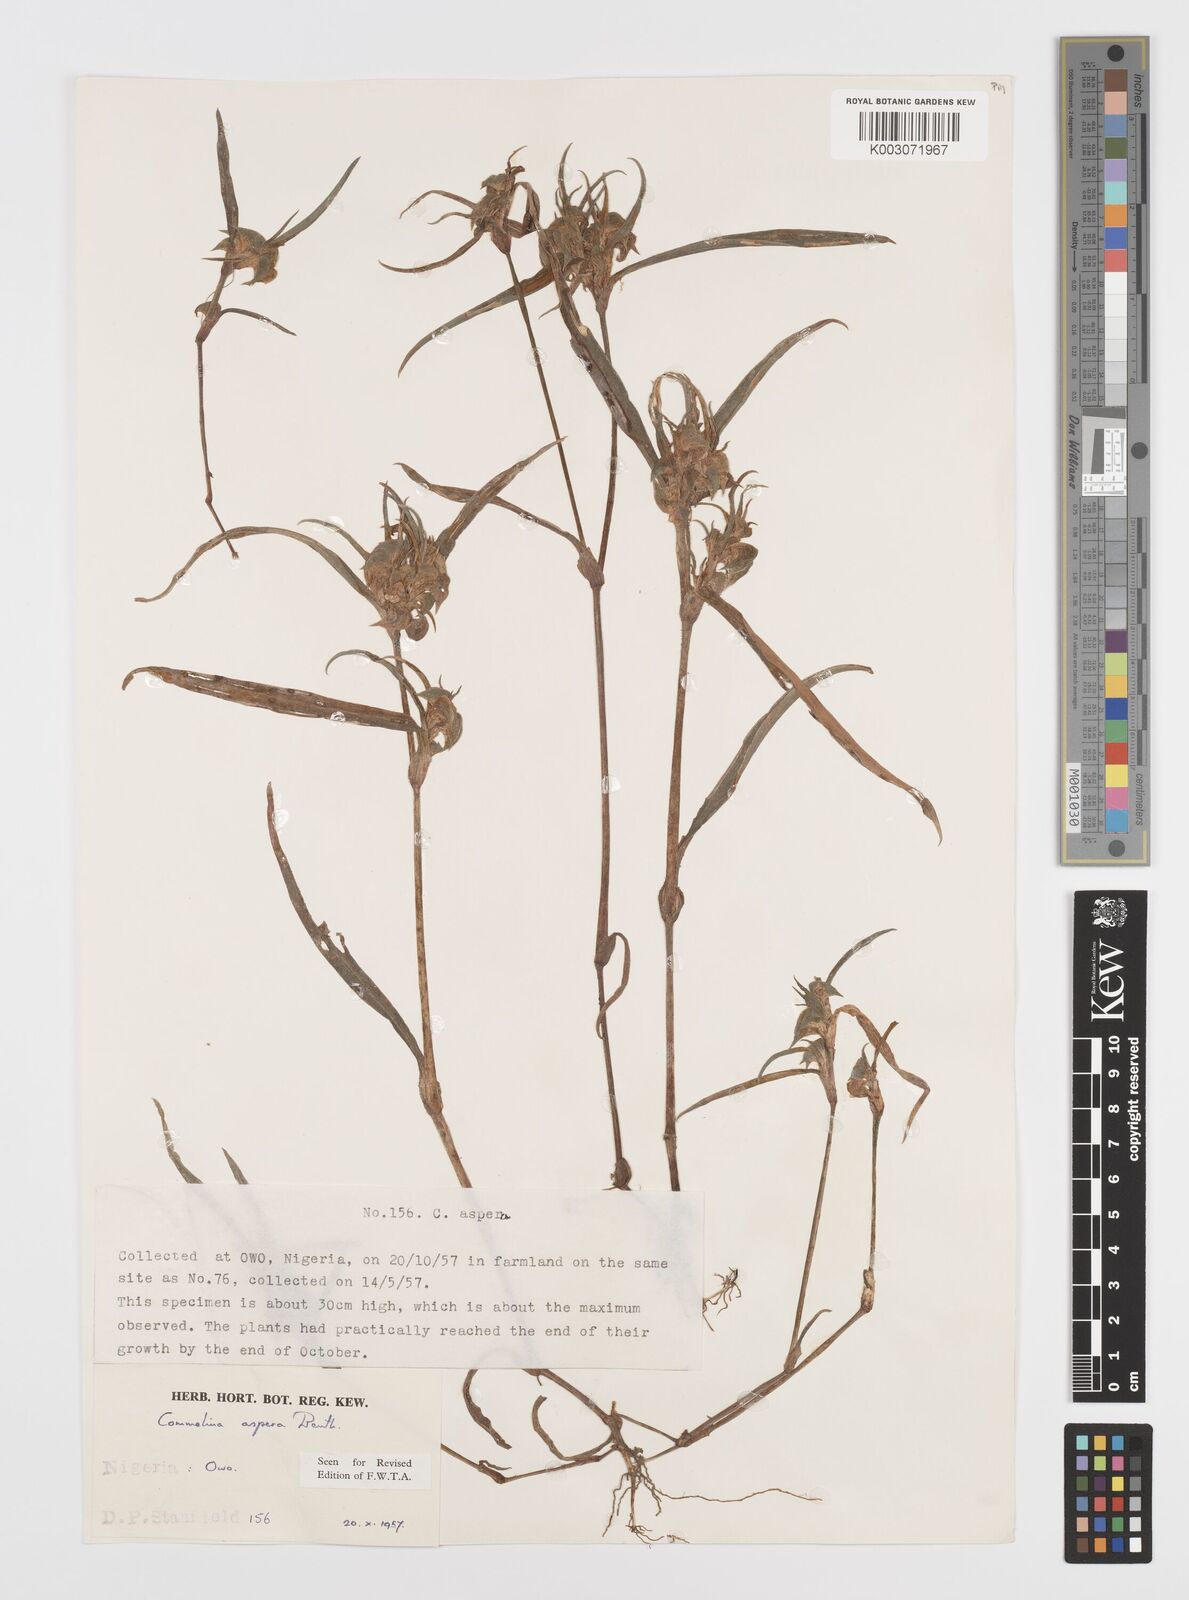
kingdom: Plantae
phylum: Tracheophyta
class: Liliopsida
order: Commelinales
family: Commelinaceae
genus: Commelina
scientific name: Commelina aspera
